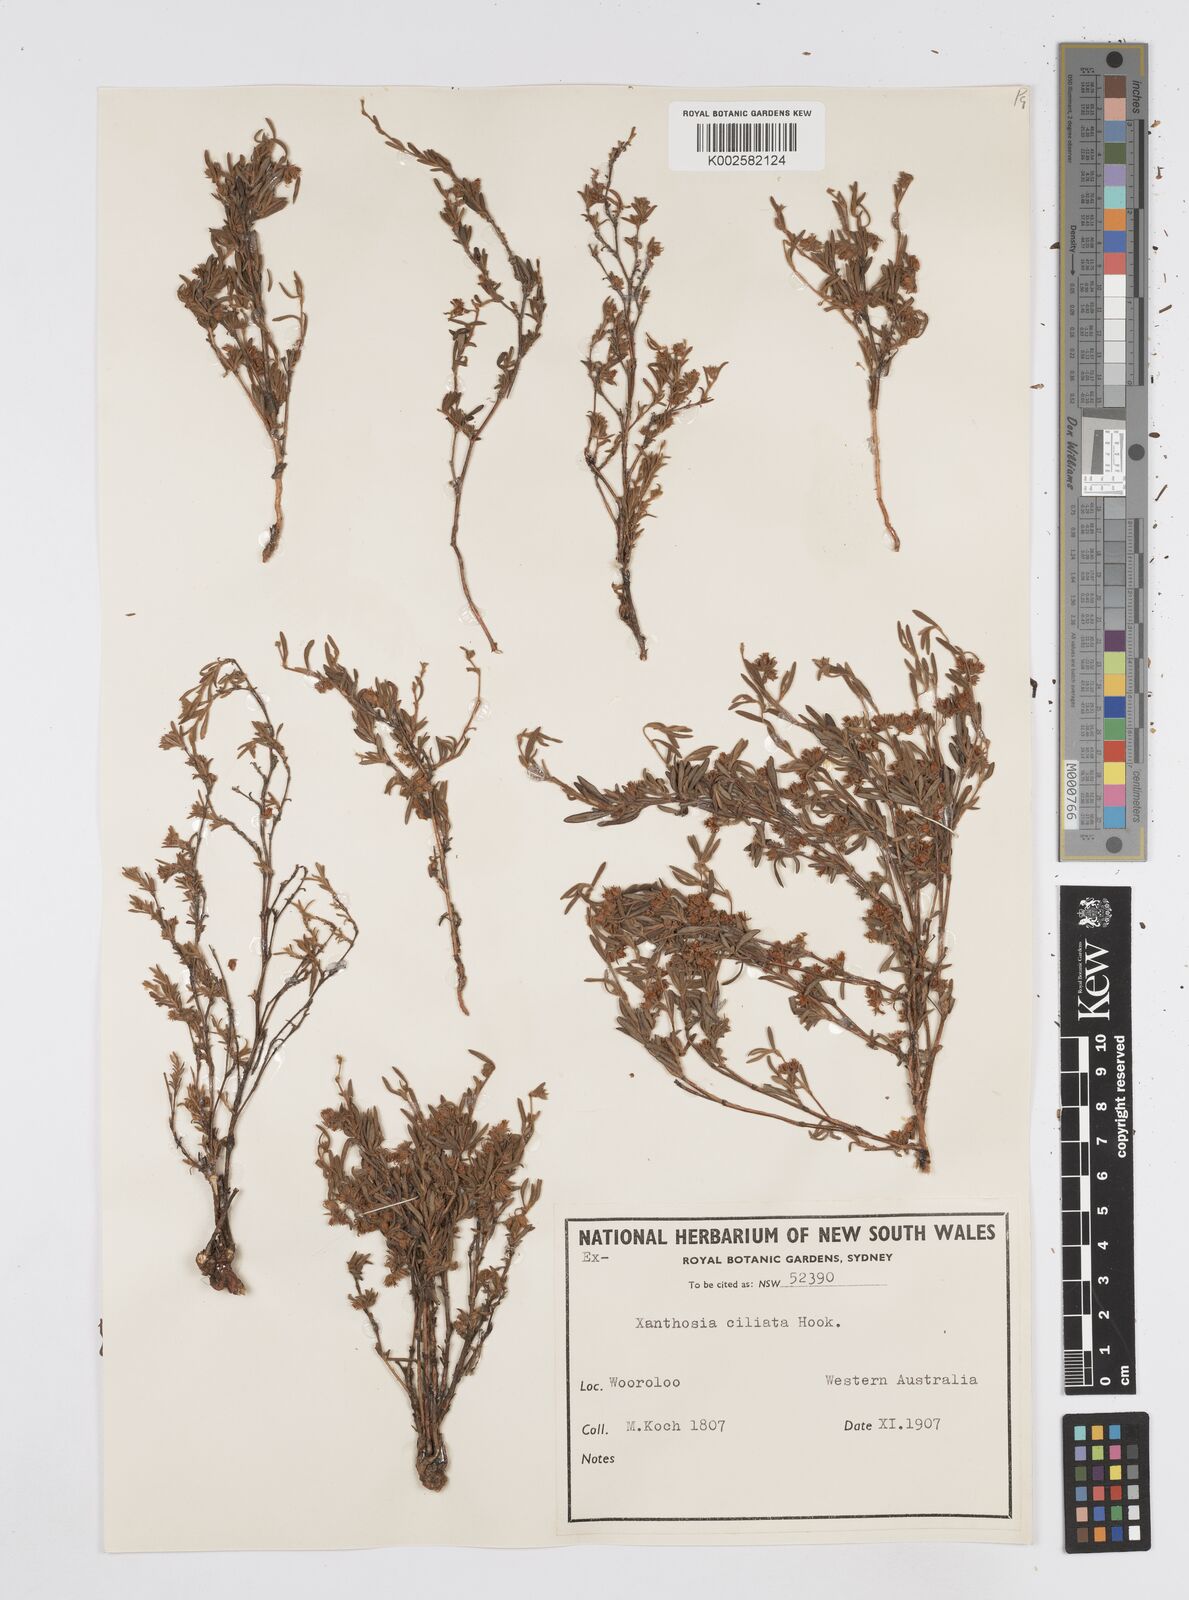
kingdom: Plantae
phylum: Tracheophyta
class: Magnoliopsida
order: Apiales
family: Apiaceae
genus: Xanthosia
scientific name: Xanthosia ciliata
